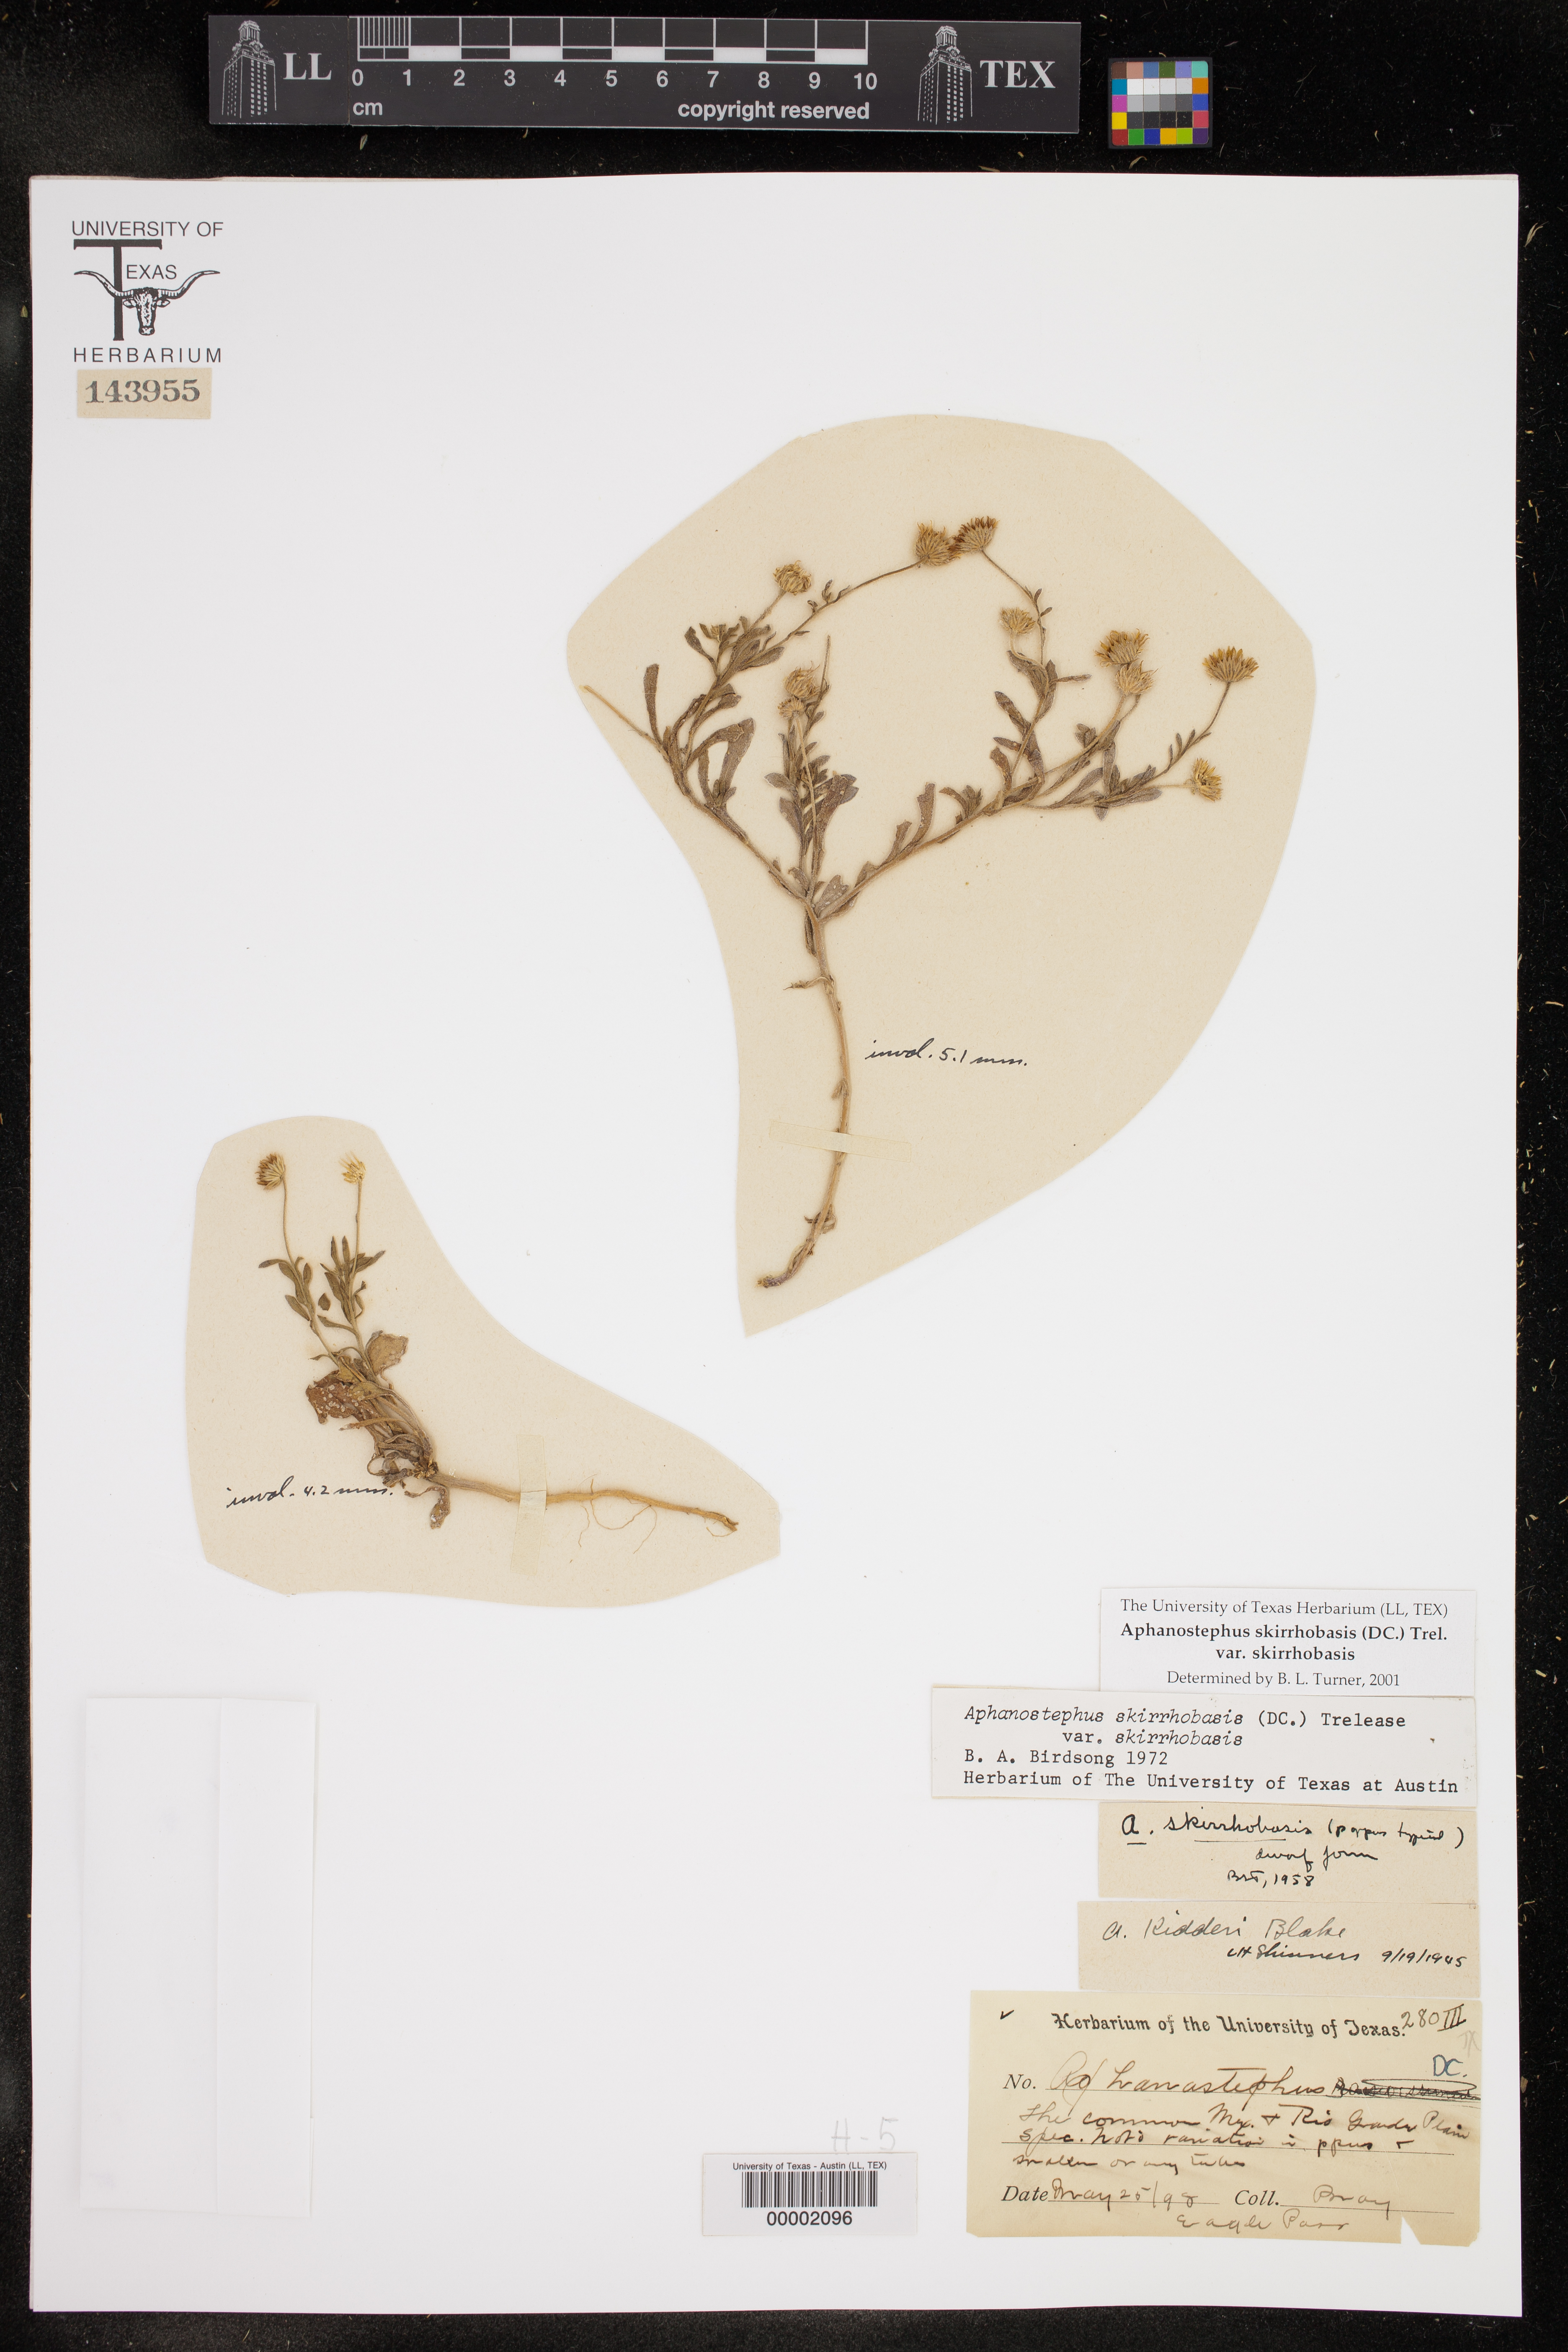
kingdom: Plantae
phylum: Tracheophyta
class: Magnoliopsida
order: Asterales
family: Asteraceae
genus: Aphanostephus
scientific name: Aphanostephus skirrhobasis
